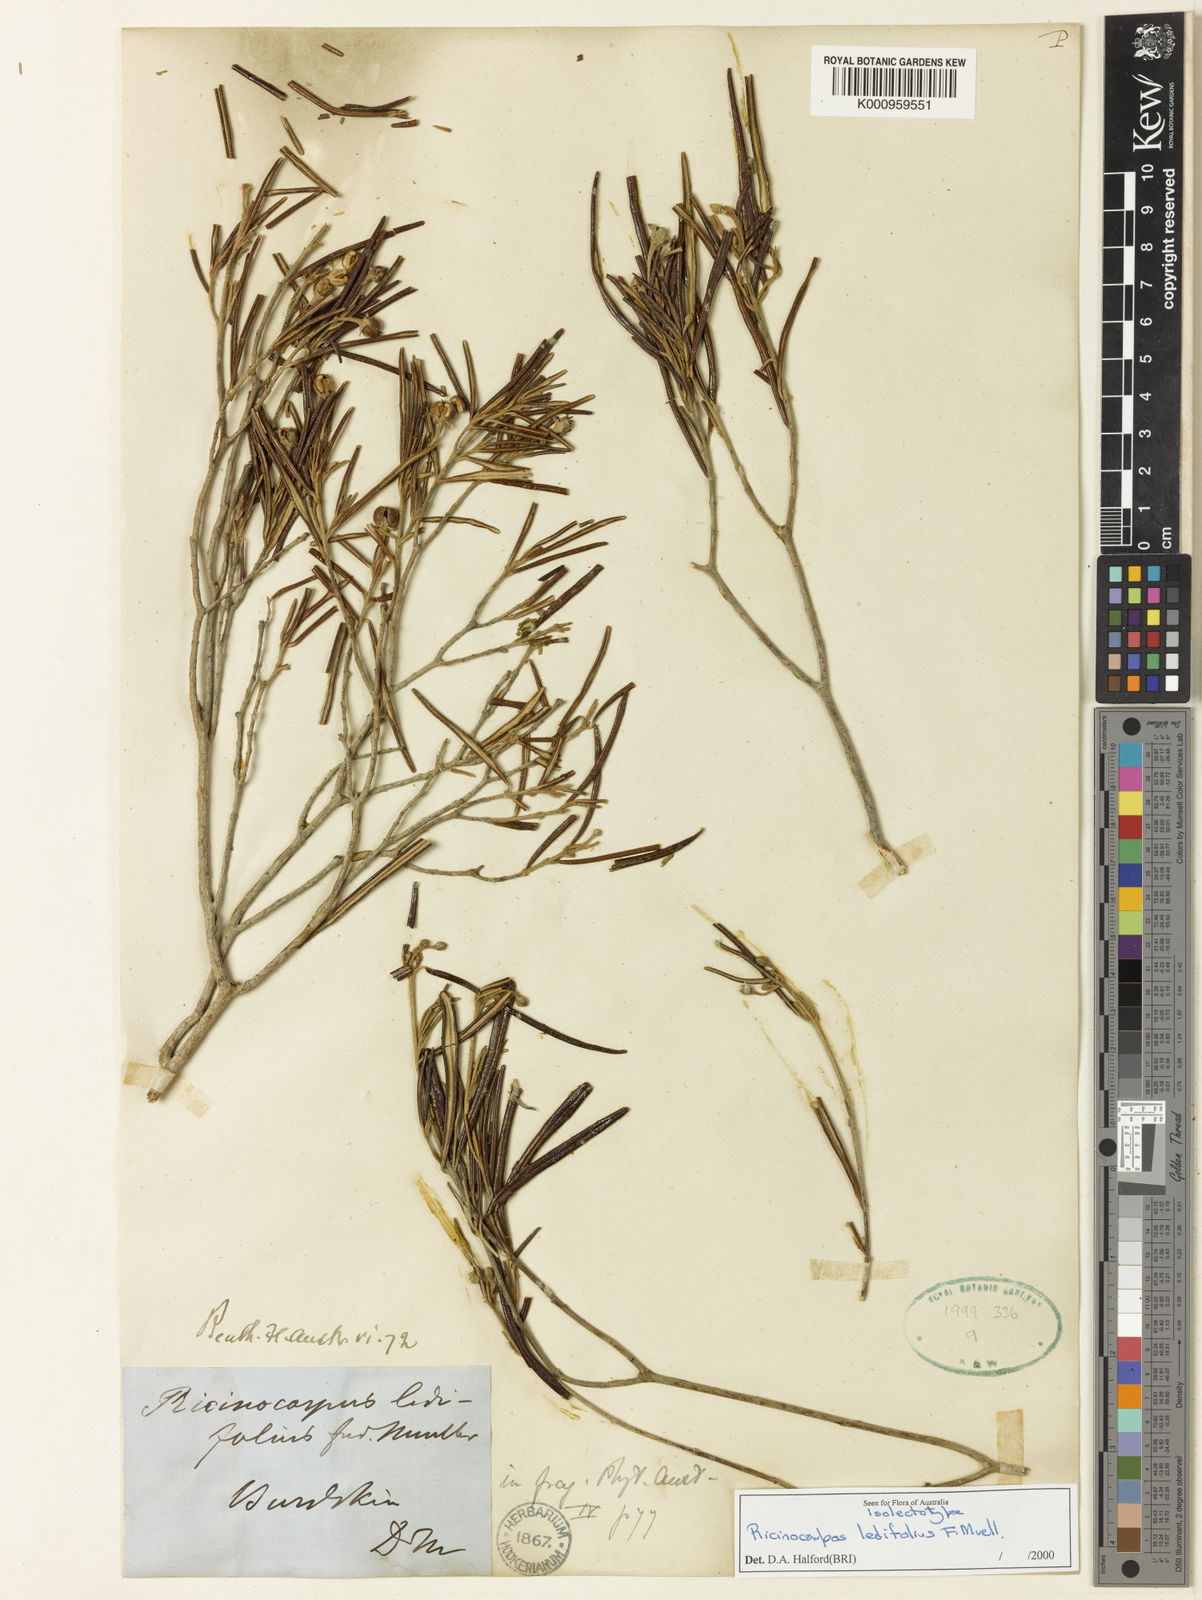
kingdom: Plantae
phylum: Tracheophyta
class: Magnoliopsida
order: Malpighiales
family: Euphorbiaceae
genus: Ricinocarpos
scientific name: Ricinocarpos ledifolius
